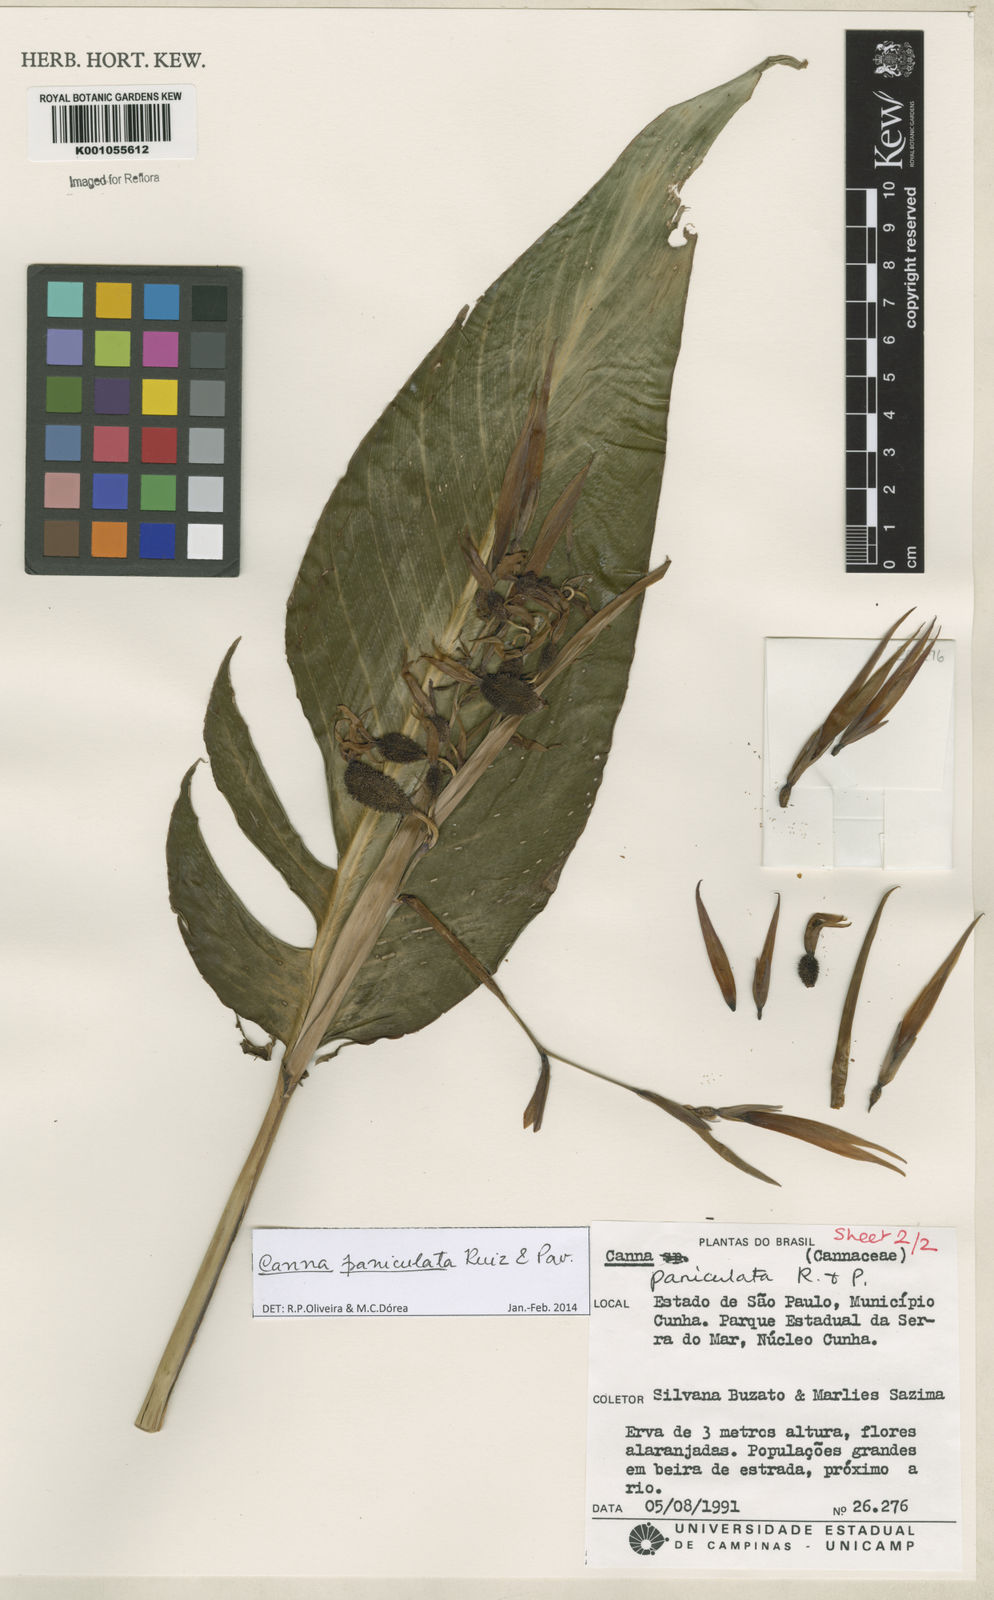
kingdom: Plantae
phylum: Tracheophyta
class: Liliopsida
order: Zingiberales
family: Cannaceae
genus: Canna
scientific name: Canna paniculata
